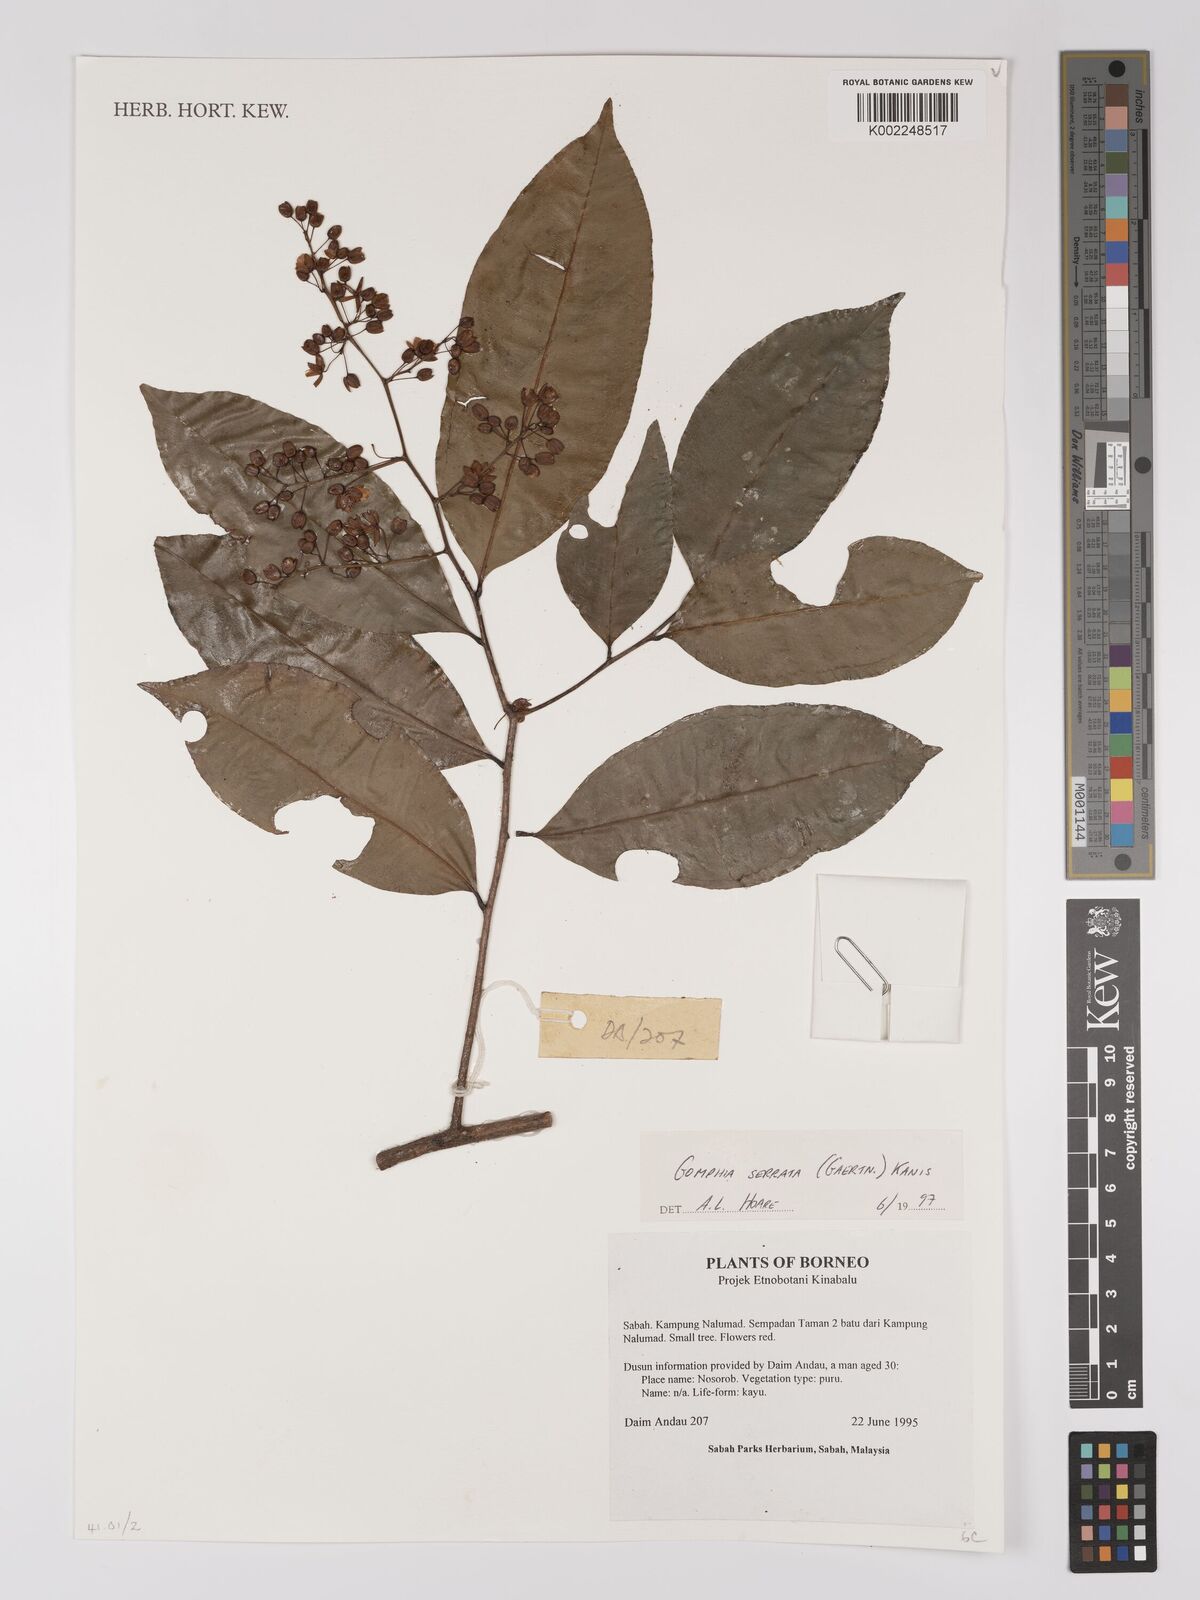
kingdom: Plantae
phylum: Tracheophyta
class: Magnoliopsida
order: Malpighiales
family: Ochnaceae
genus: Gomphia
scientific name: Gomphia serrata
